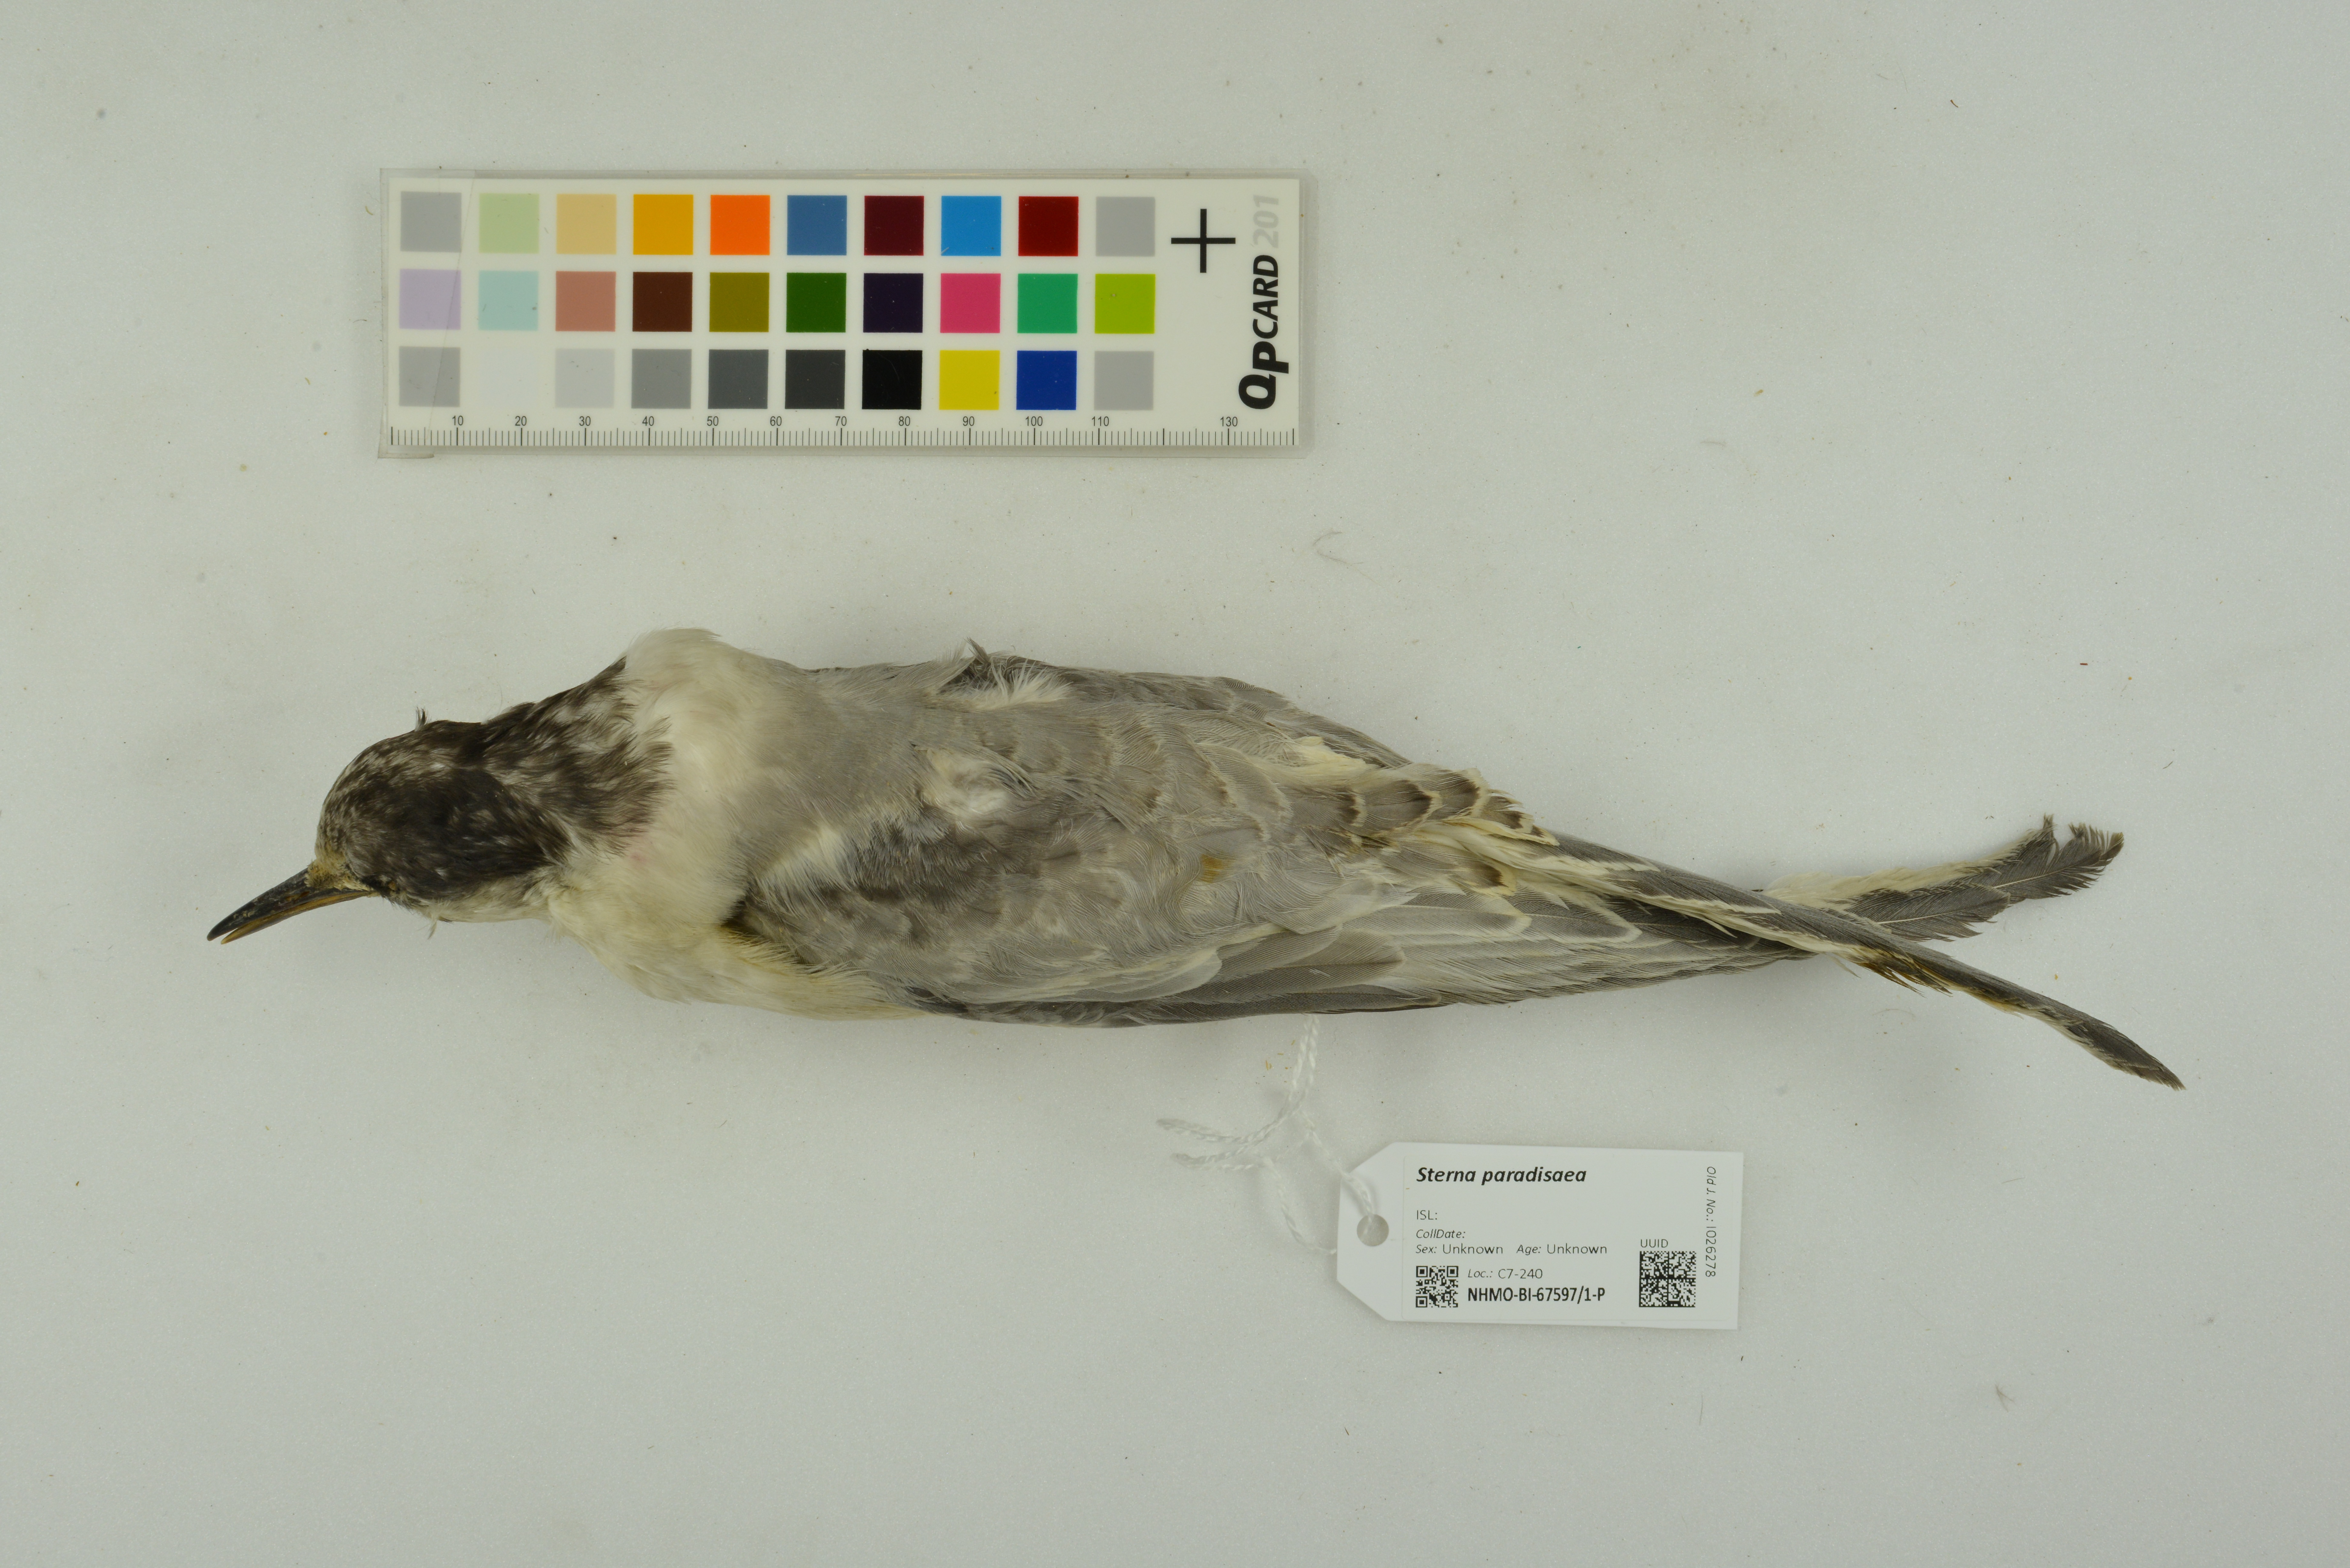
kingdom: Animalia
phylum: Chordata
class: Aves
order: Charadriiformes
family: Laridae
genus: Sterna
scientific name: Sterna paradisaea
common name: Arctic tern
